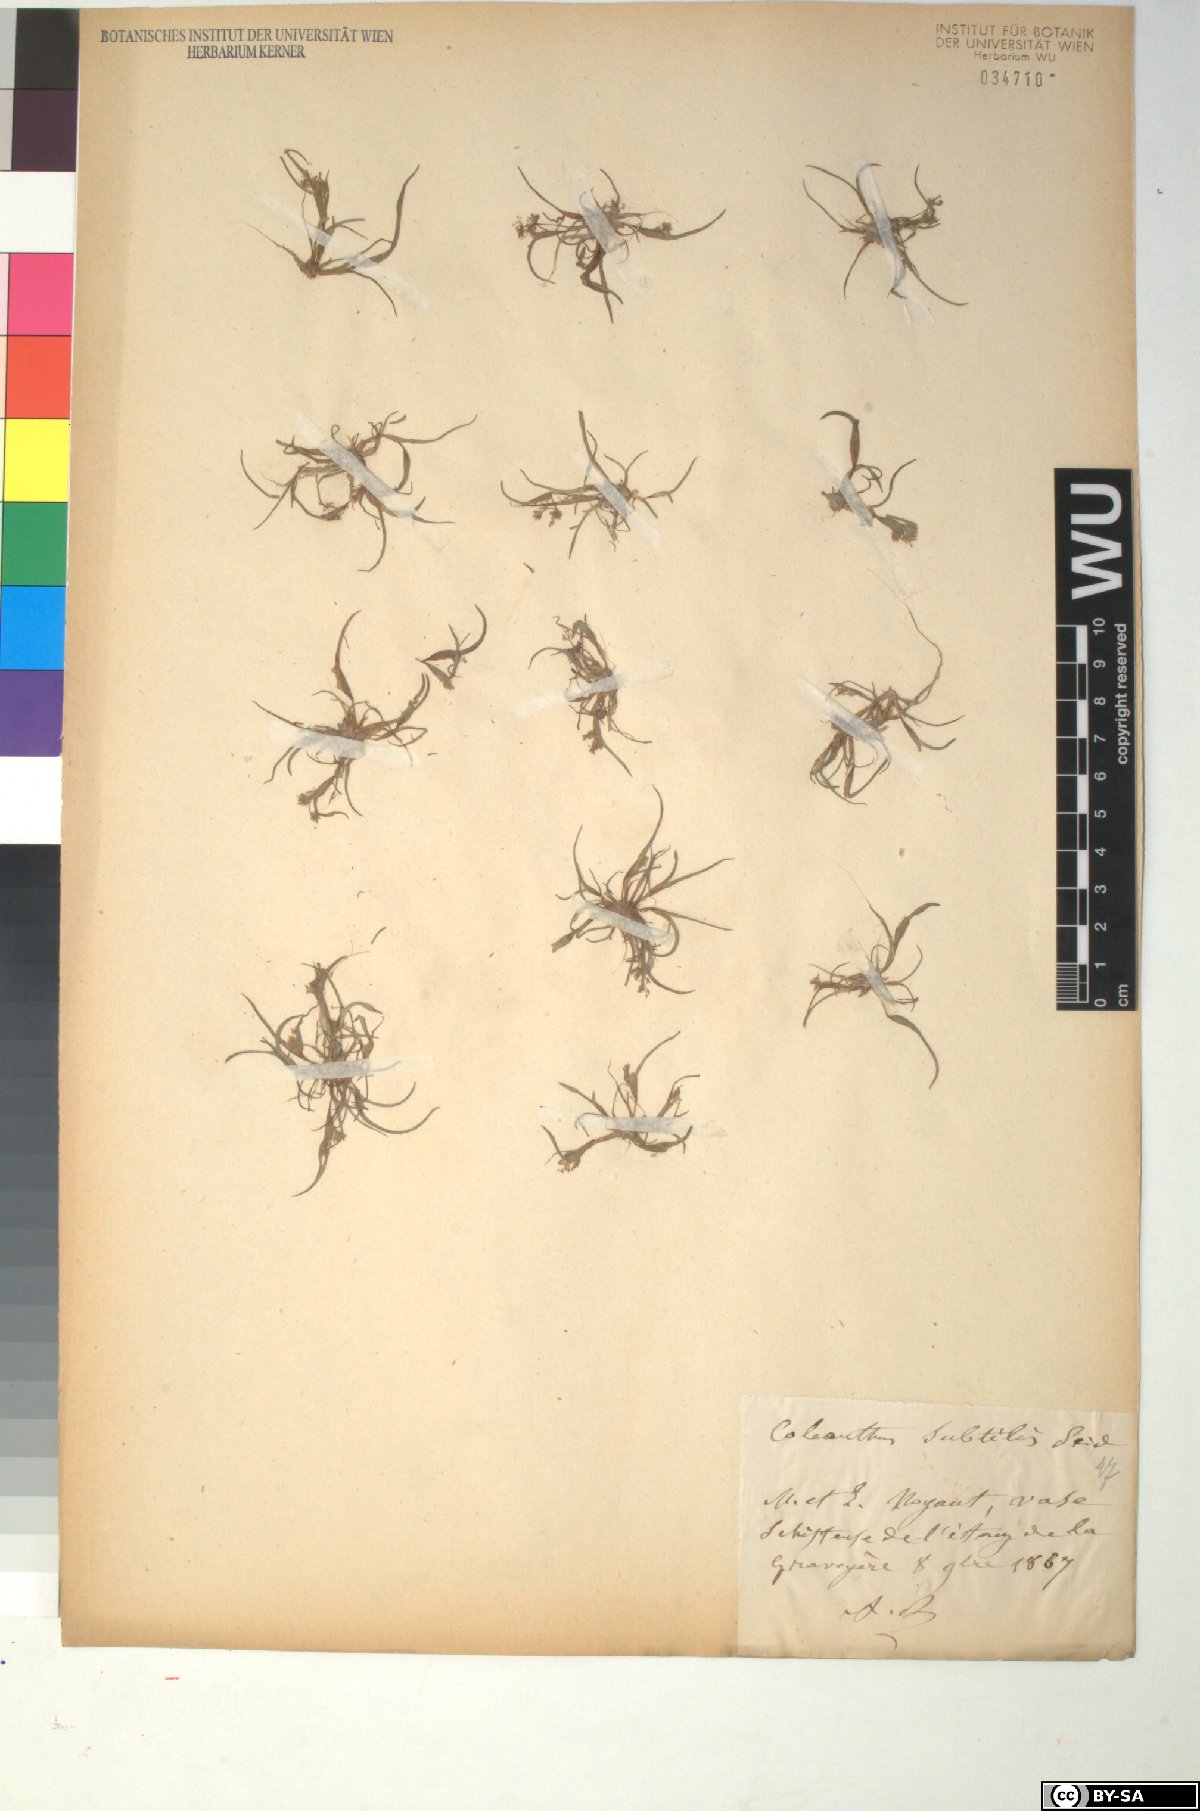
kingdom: Plantae
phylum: Tracheophyta
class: Liliopsida
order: Poales
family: Poaceae
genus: Coleanthus
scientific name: Coleanthus subtilis
